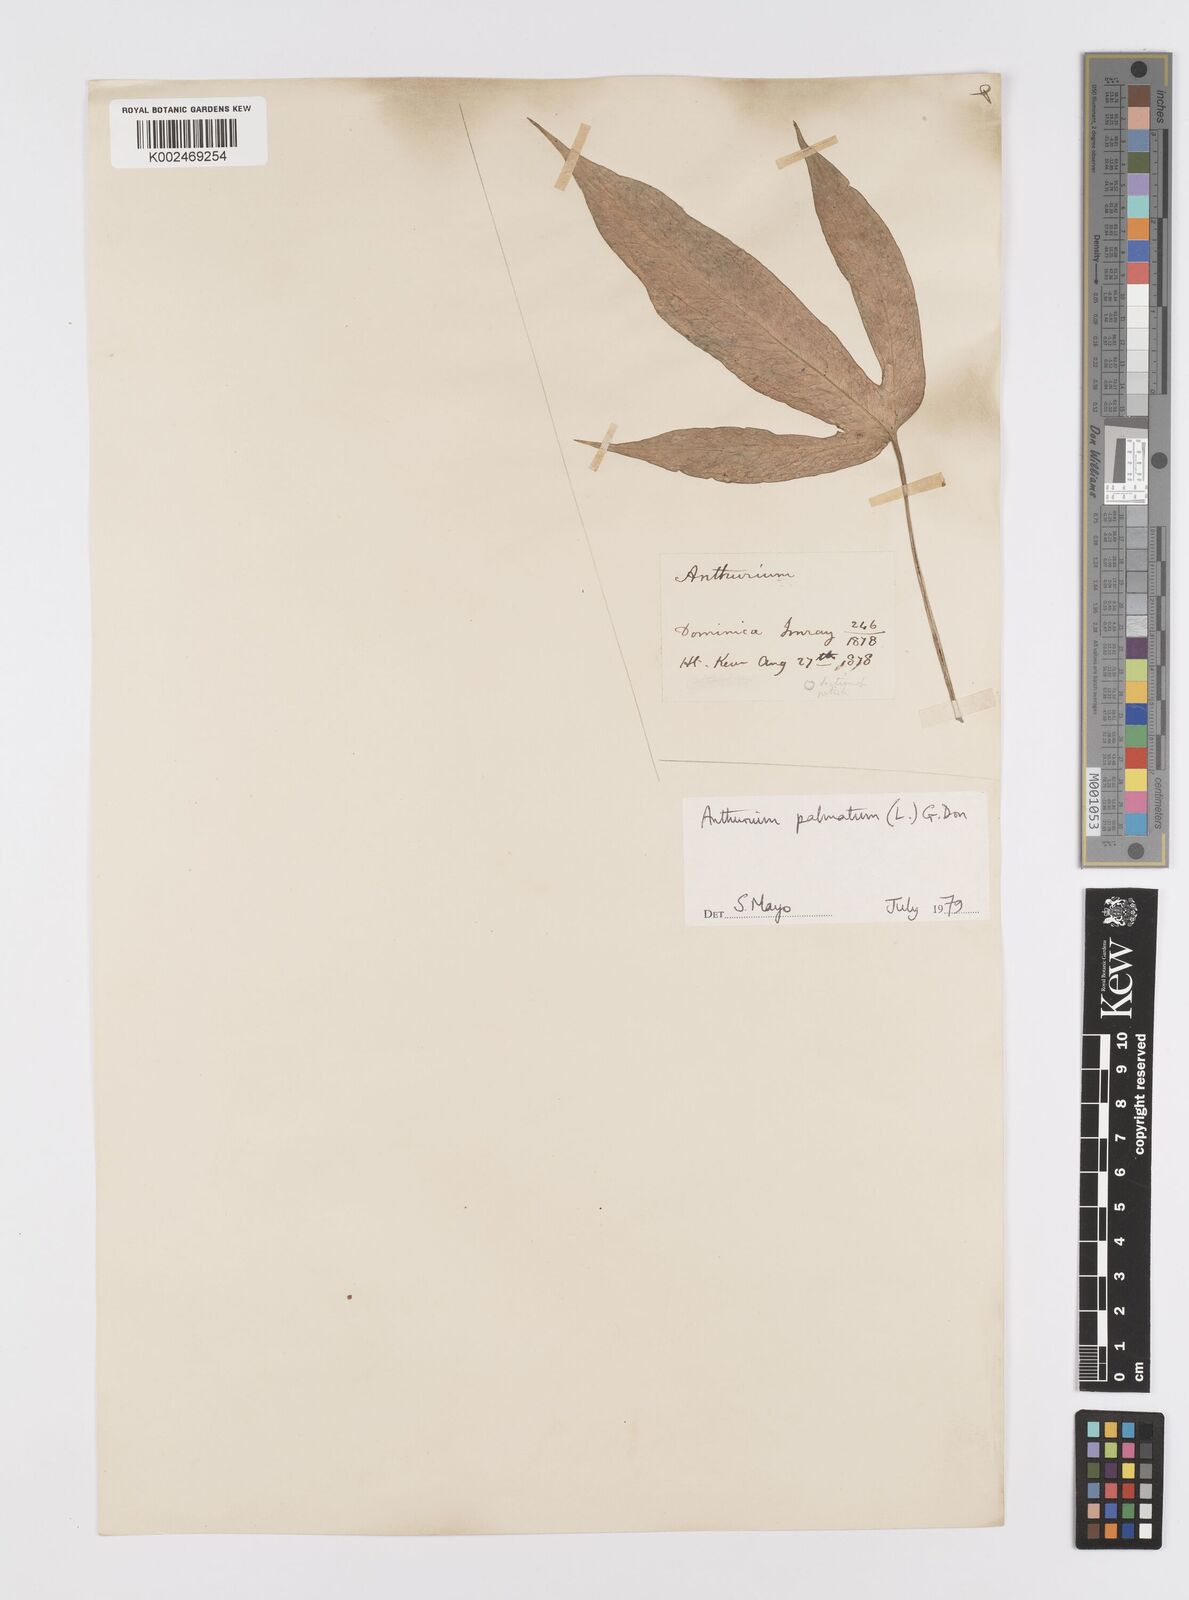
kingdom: Plantae
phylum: Tracheophyta
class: Liliopsida
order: Alismatales
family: Araceae
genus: Anthurium
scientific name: Anthurium palmatum
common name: Mibi
